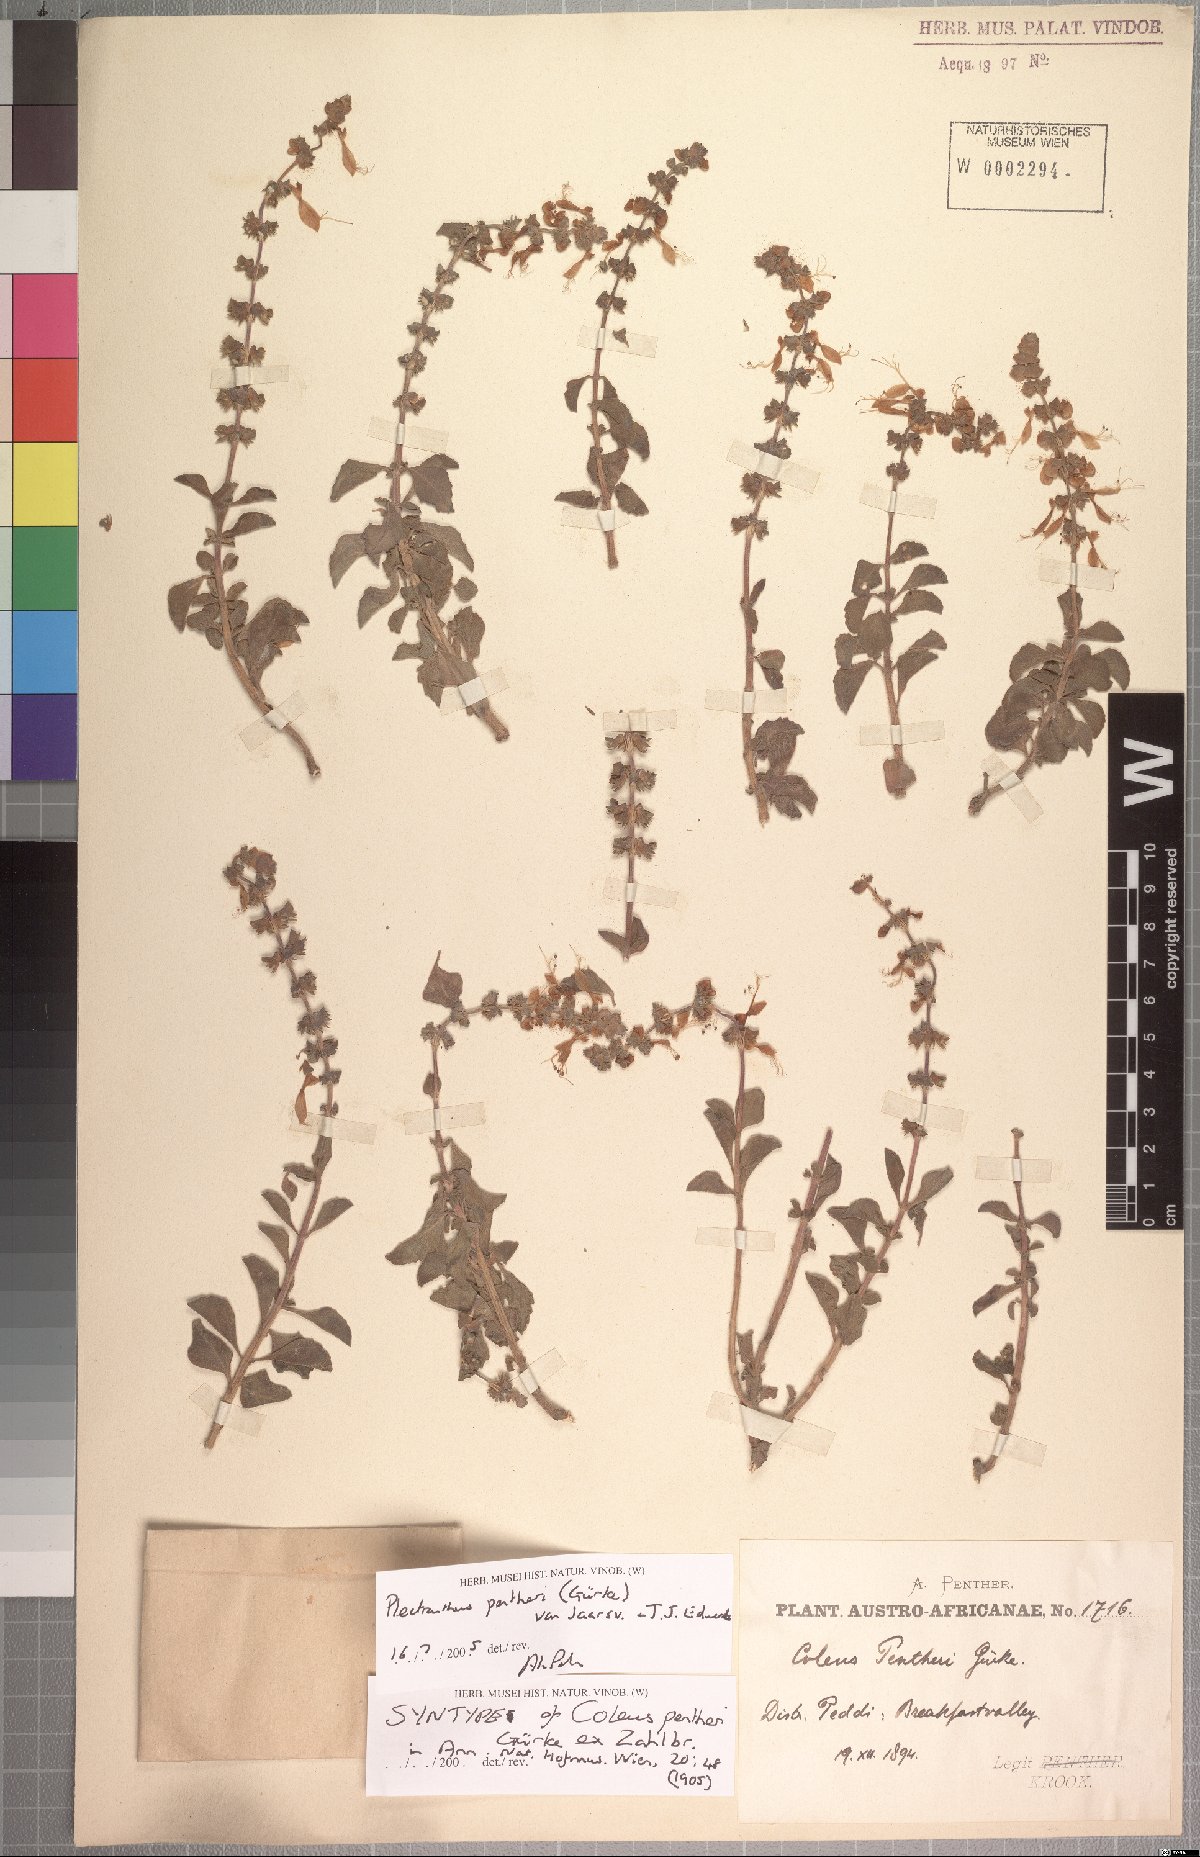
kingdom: Plantae
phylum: Tracheophyta
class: Magnoliopsida
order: Lamiales
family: Lamiaceae
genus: Coleus
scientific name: Coleus pentheri
